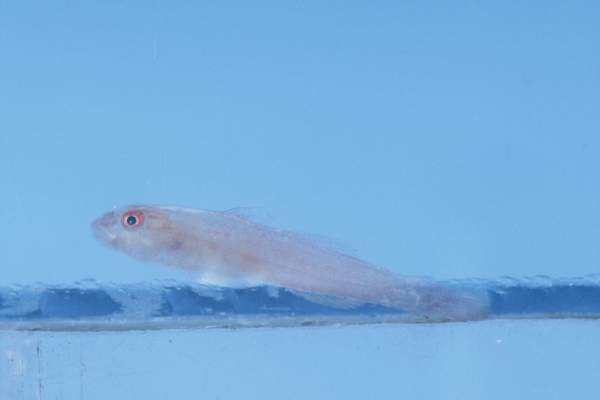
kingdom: Animalia
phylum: Chordata
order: Perciformes
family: Gobiidae
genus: Pleurosicya
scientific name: Pleurosicya fringilla
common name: Staghorn ghostgoby
